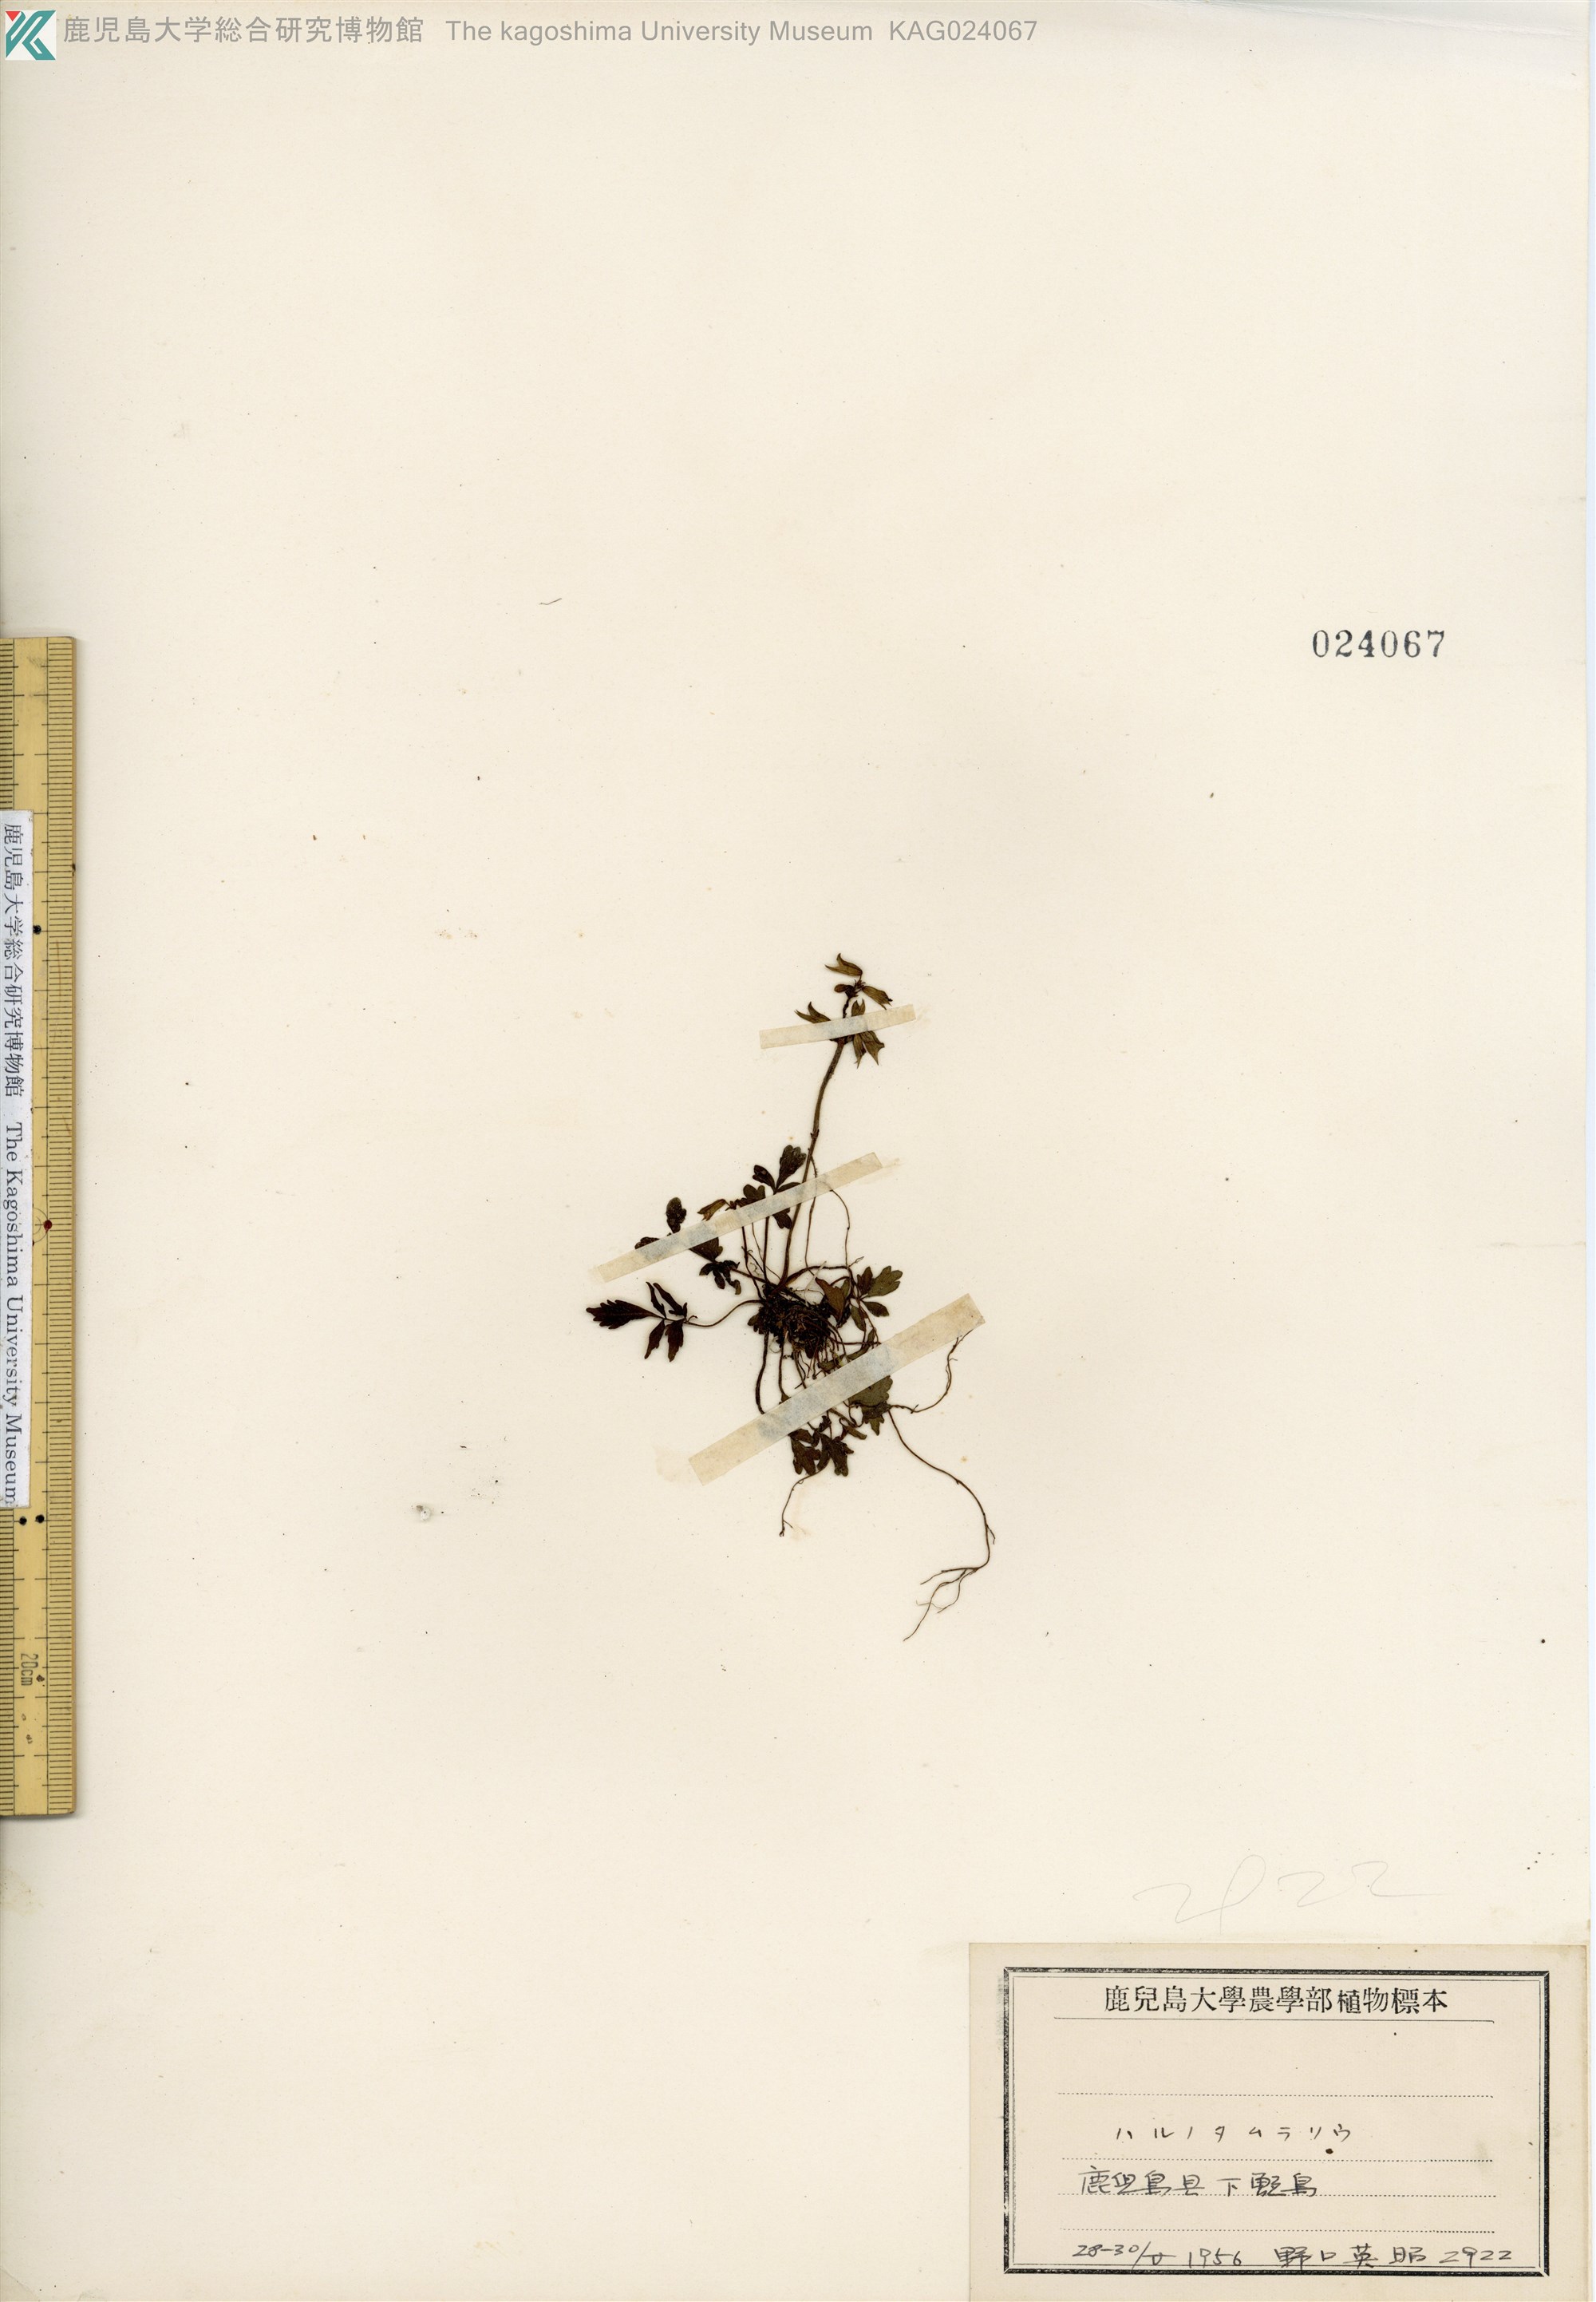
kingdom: Plantae
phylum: Tracheophyta
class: Magnoliopsida
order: Lamiales
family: Lamiaceae
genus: Salvia
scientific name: Salvia ranzaniana
